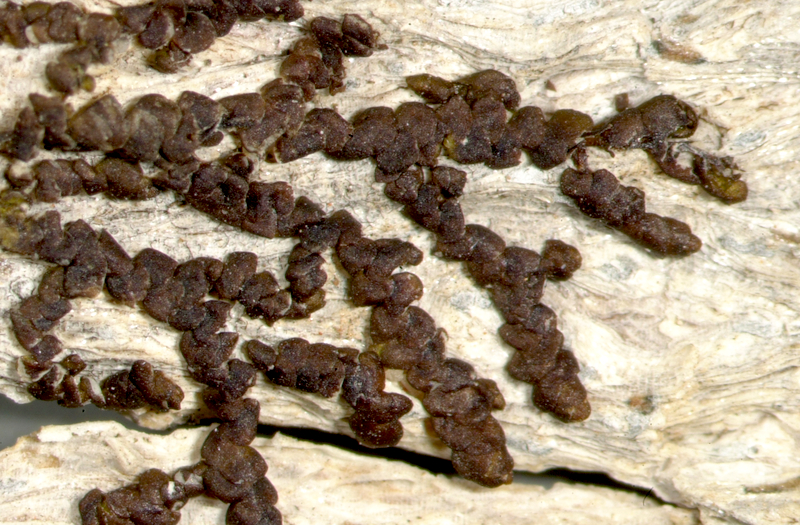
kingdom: Fungi
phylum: Ascomycota
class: Lecanoromycetes
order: Lecanorales
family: Lecanoraceae
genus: Lecanora
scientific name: Lecanora
